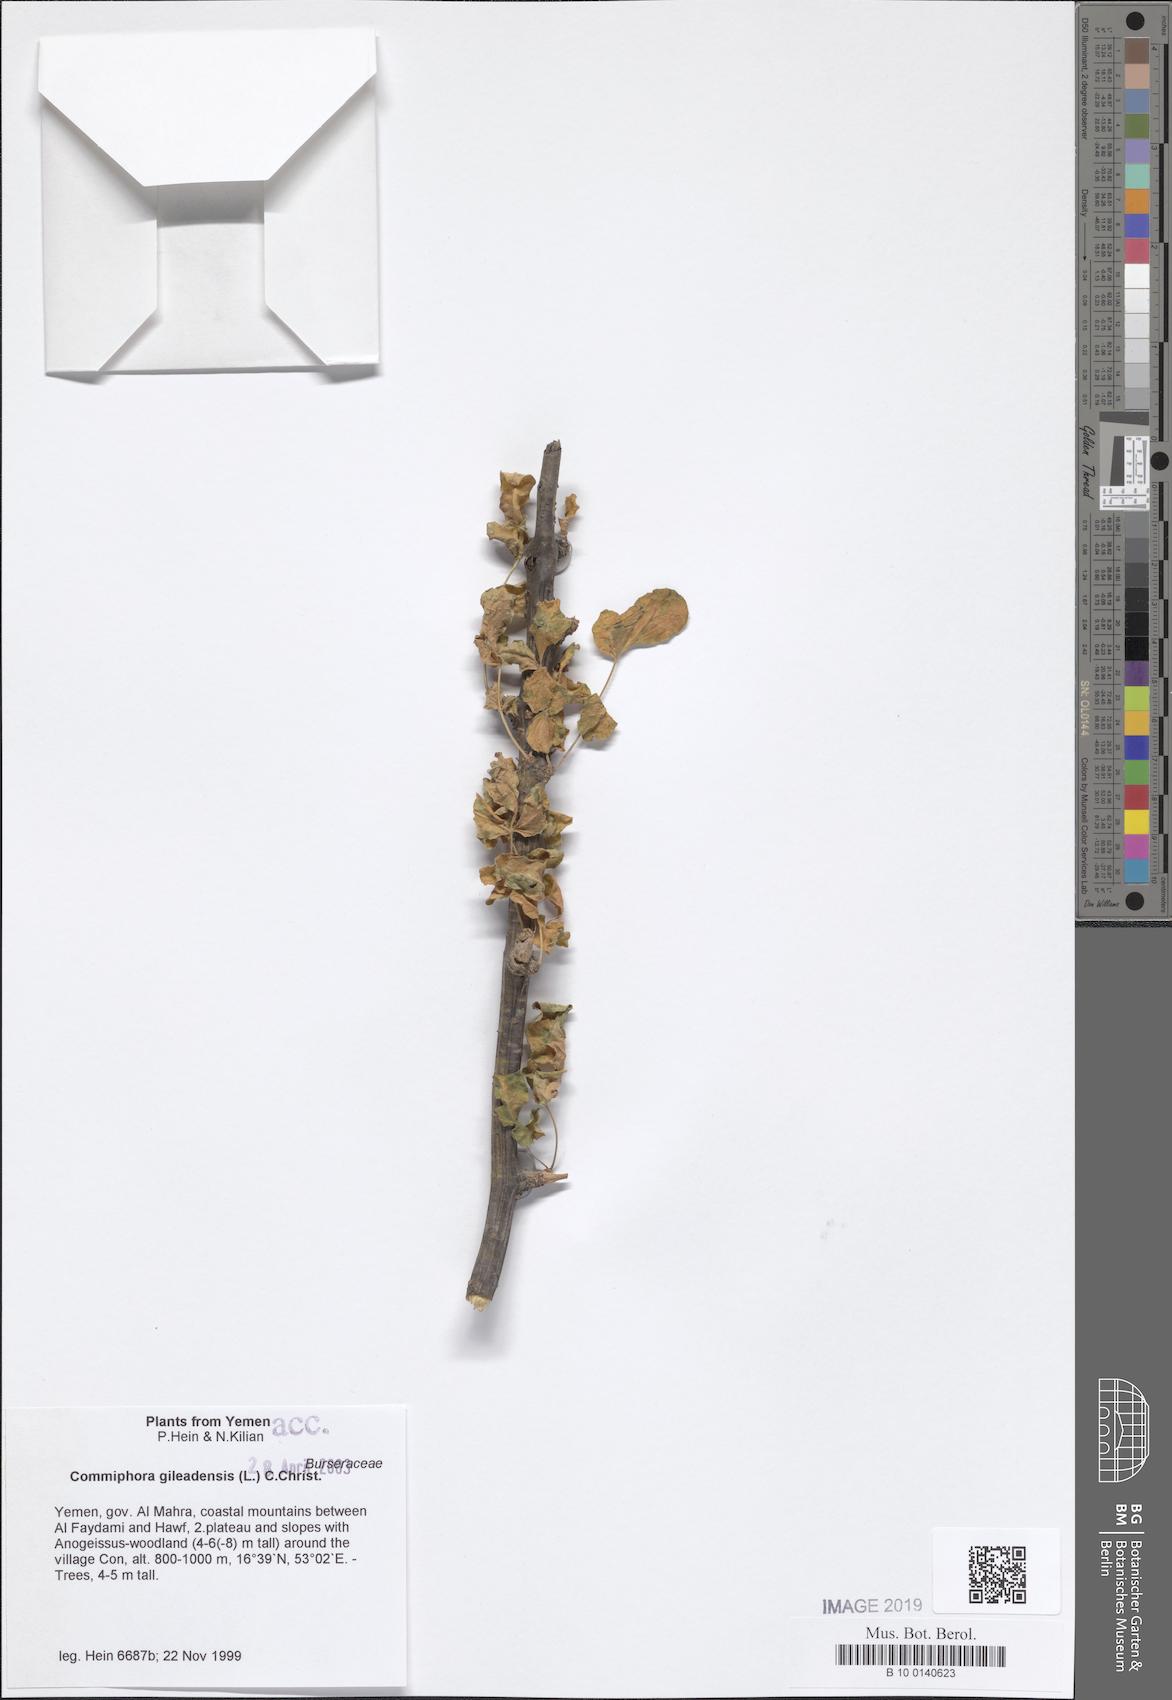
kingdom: Plantae
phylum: Tracheophyta
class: Magnoliopsida
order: Sapindales
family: Burseraceae
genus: Commiphora
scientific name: Commiphora gileadensis
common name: Balm-of-gilead
